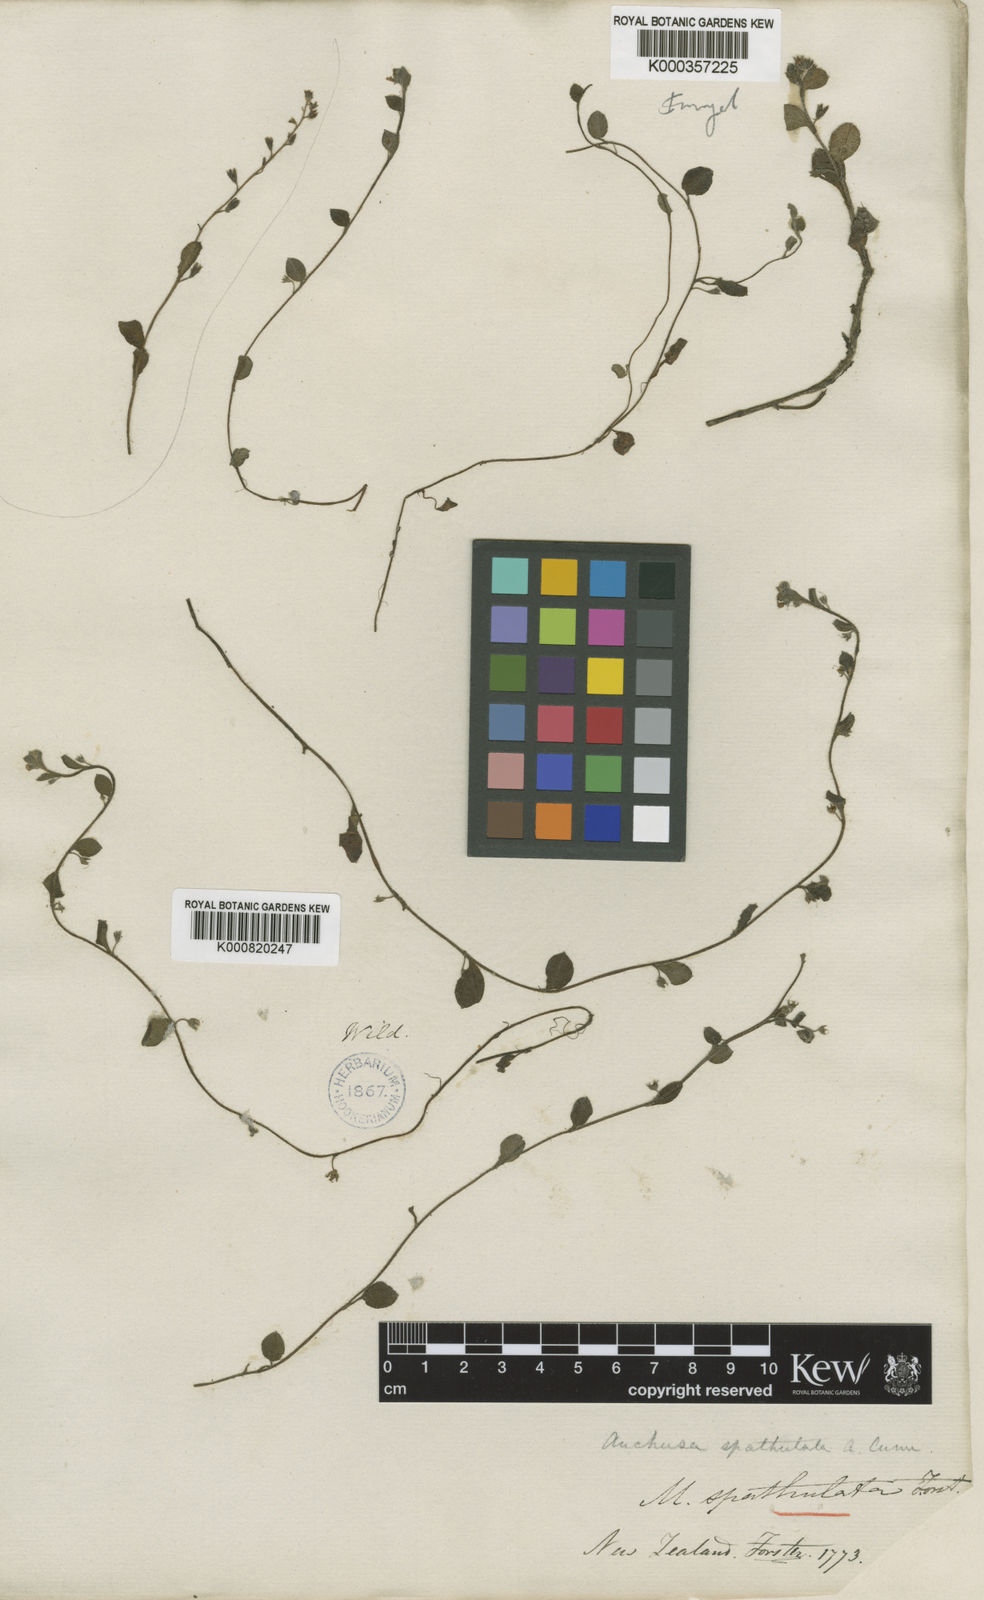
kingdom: Plantae
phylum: Tracheophyta
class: Magnoliopsida
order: Boraginales
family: Boraginaceae
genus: Myosotis
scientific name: Myosotis
